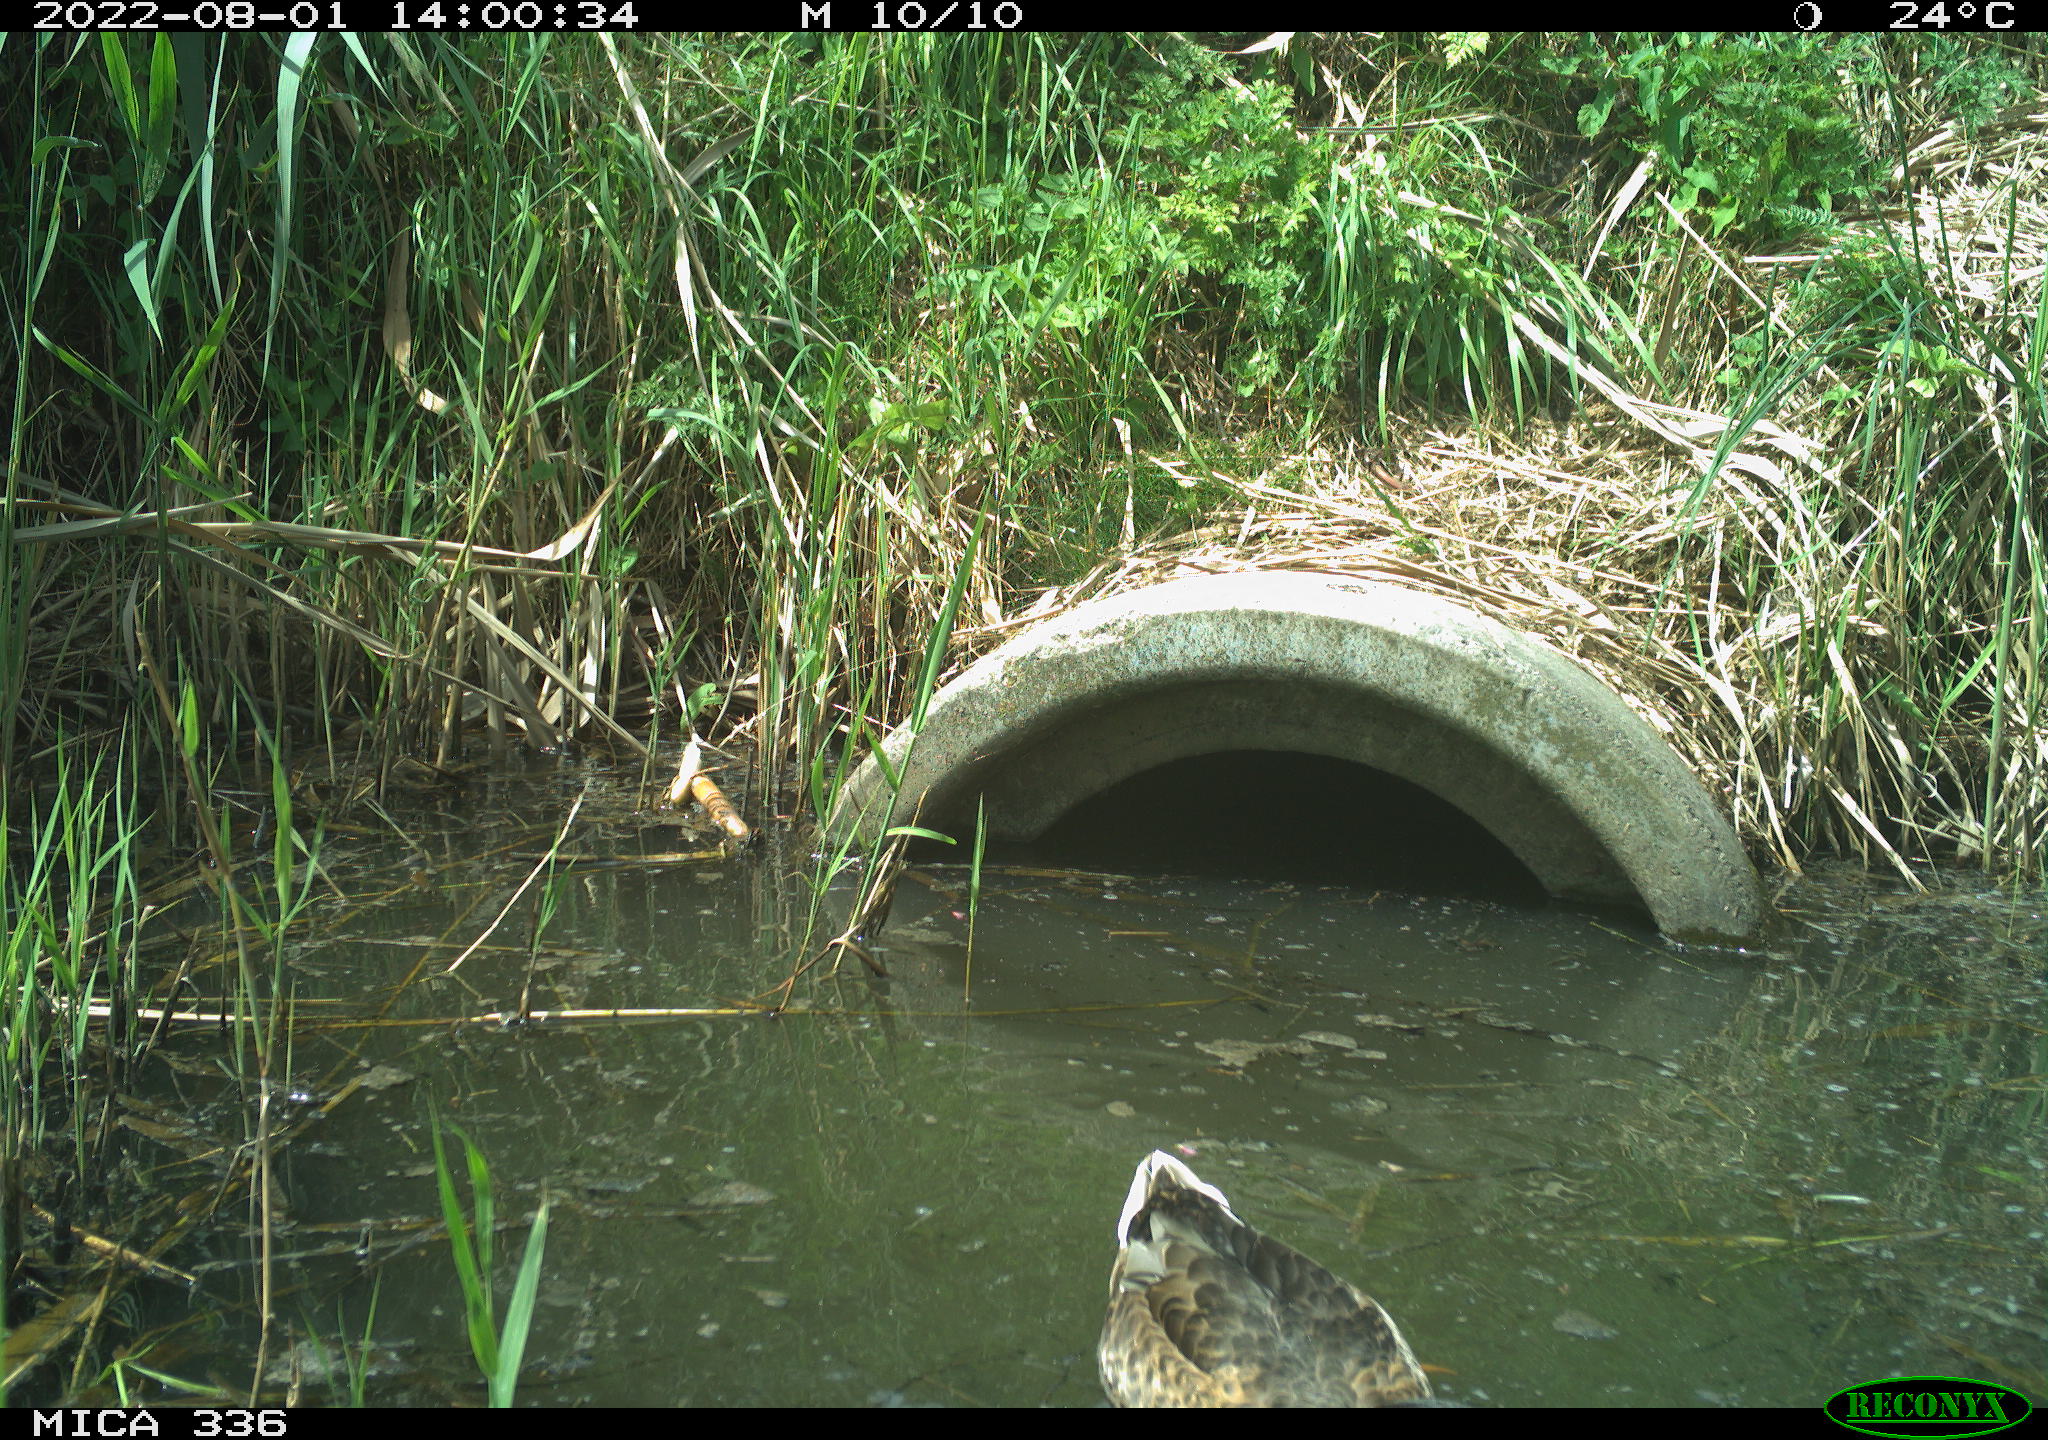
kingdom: Animalia
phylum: Chordata
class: Aves
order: Anseriformes
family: Anatidae
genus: Anas
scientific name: Anas platyrhynchos
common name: Mallard
